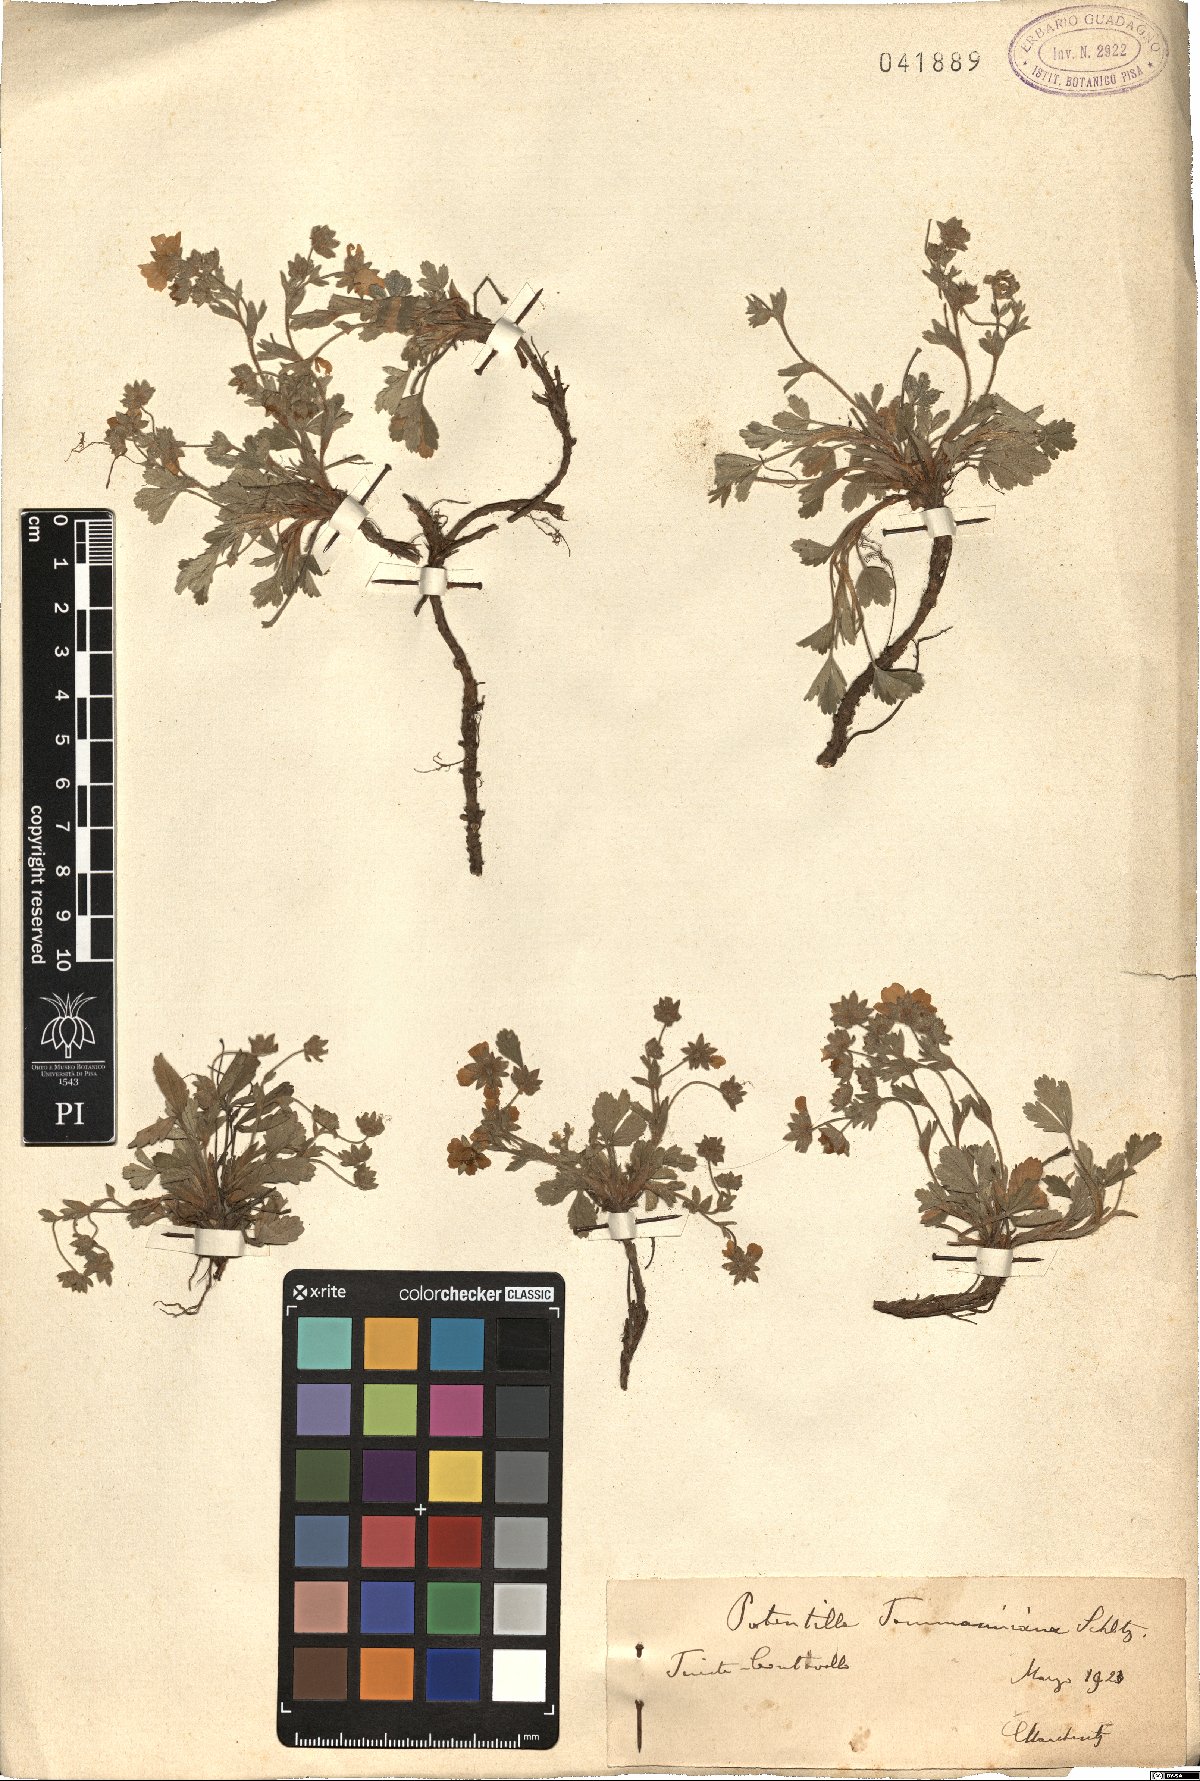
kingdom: Plantae
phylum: Tracheophyta
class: Magnoliopsida
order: Rosales
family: Rosaceae
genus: Potentilla
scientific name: Potentilla cinerea
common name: Ashy cinquefoil
